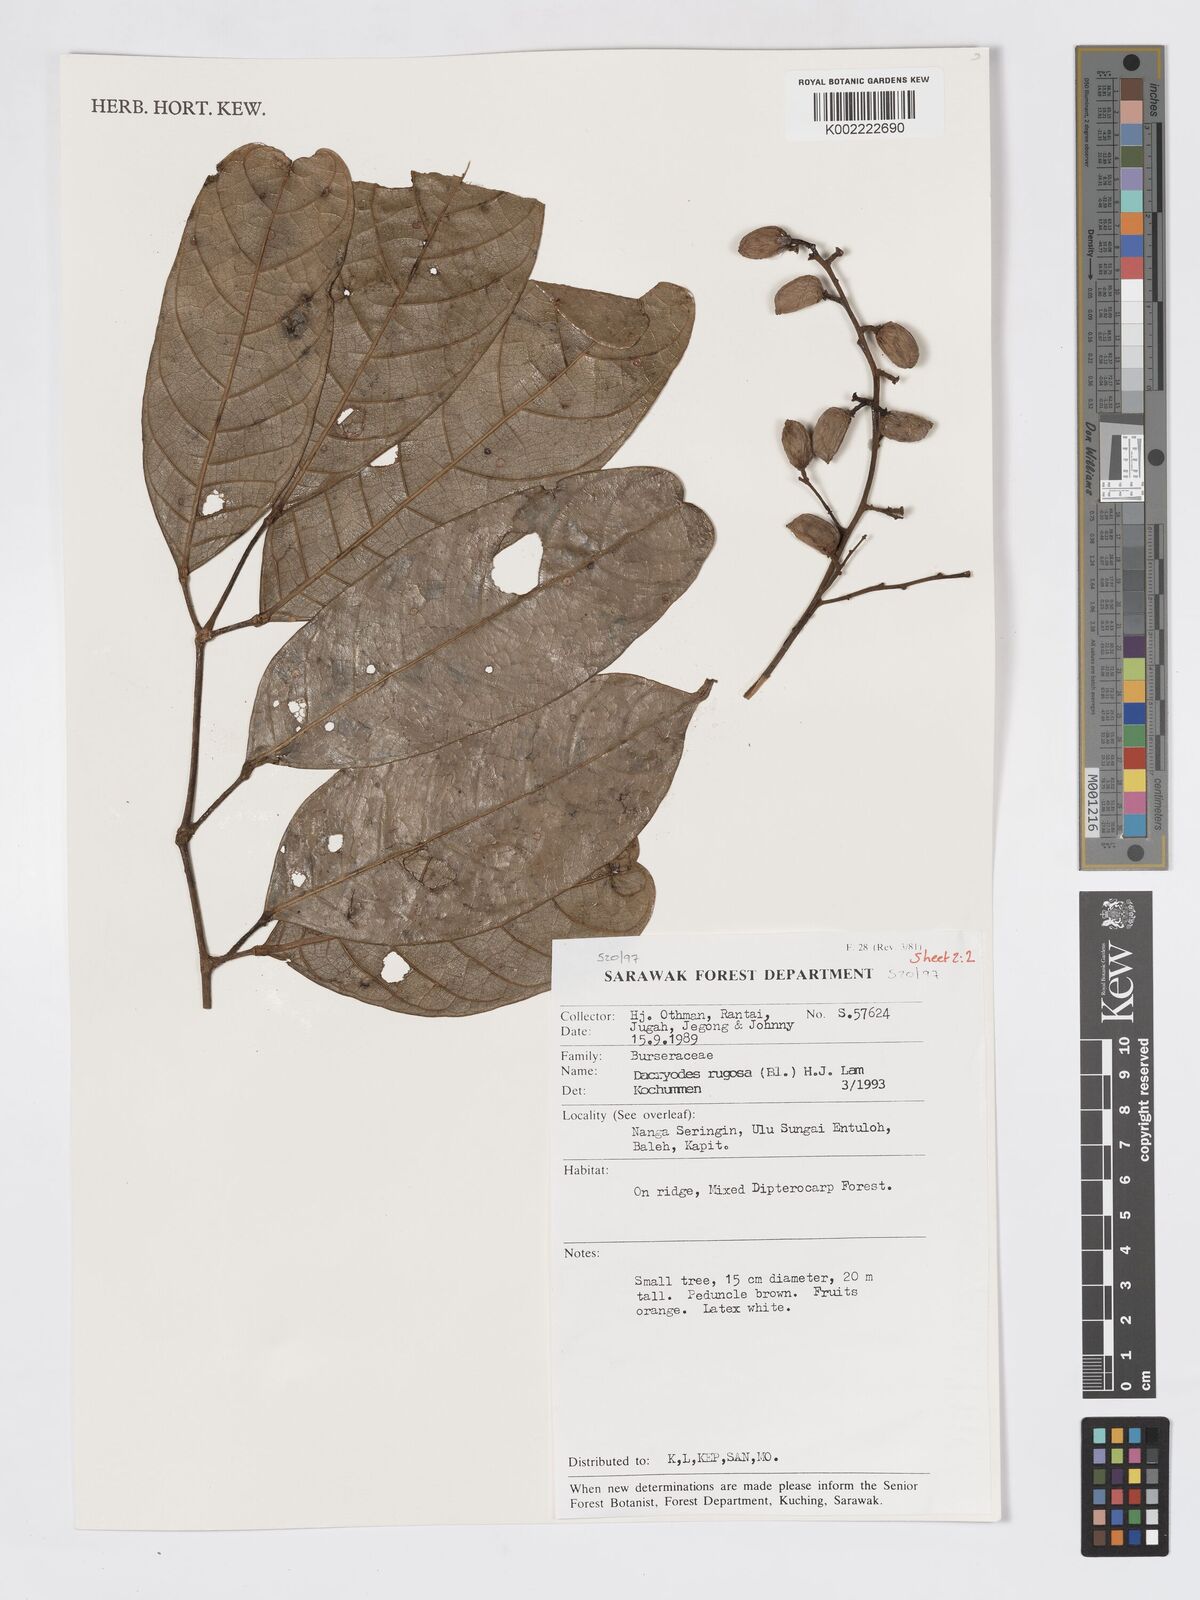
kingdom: Plantae
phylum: Tracheophyta
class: Magnoliopsida
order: Sapindales
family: Burseraceae
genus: Dacryodes
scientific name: Dacryodes rugosa
